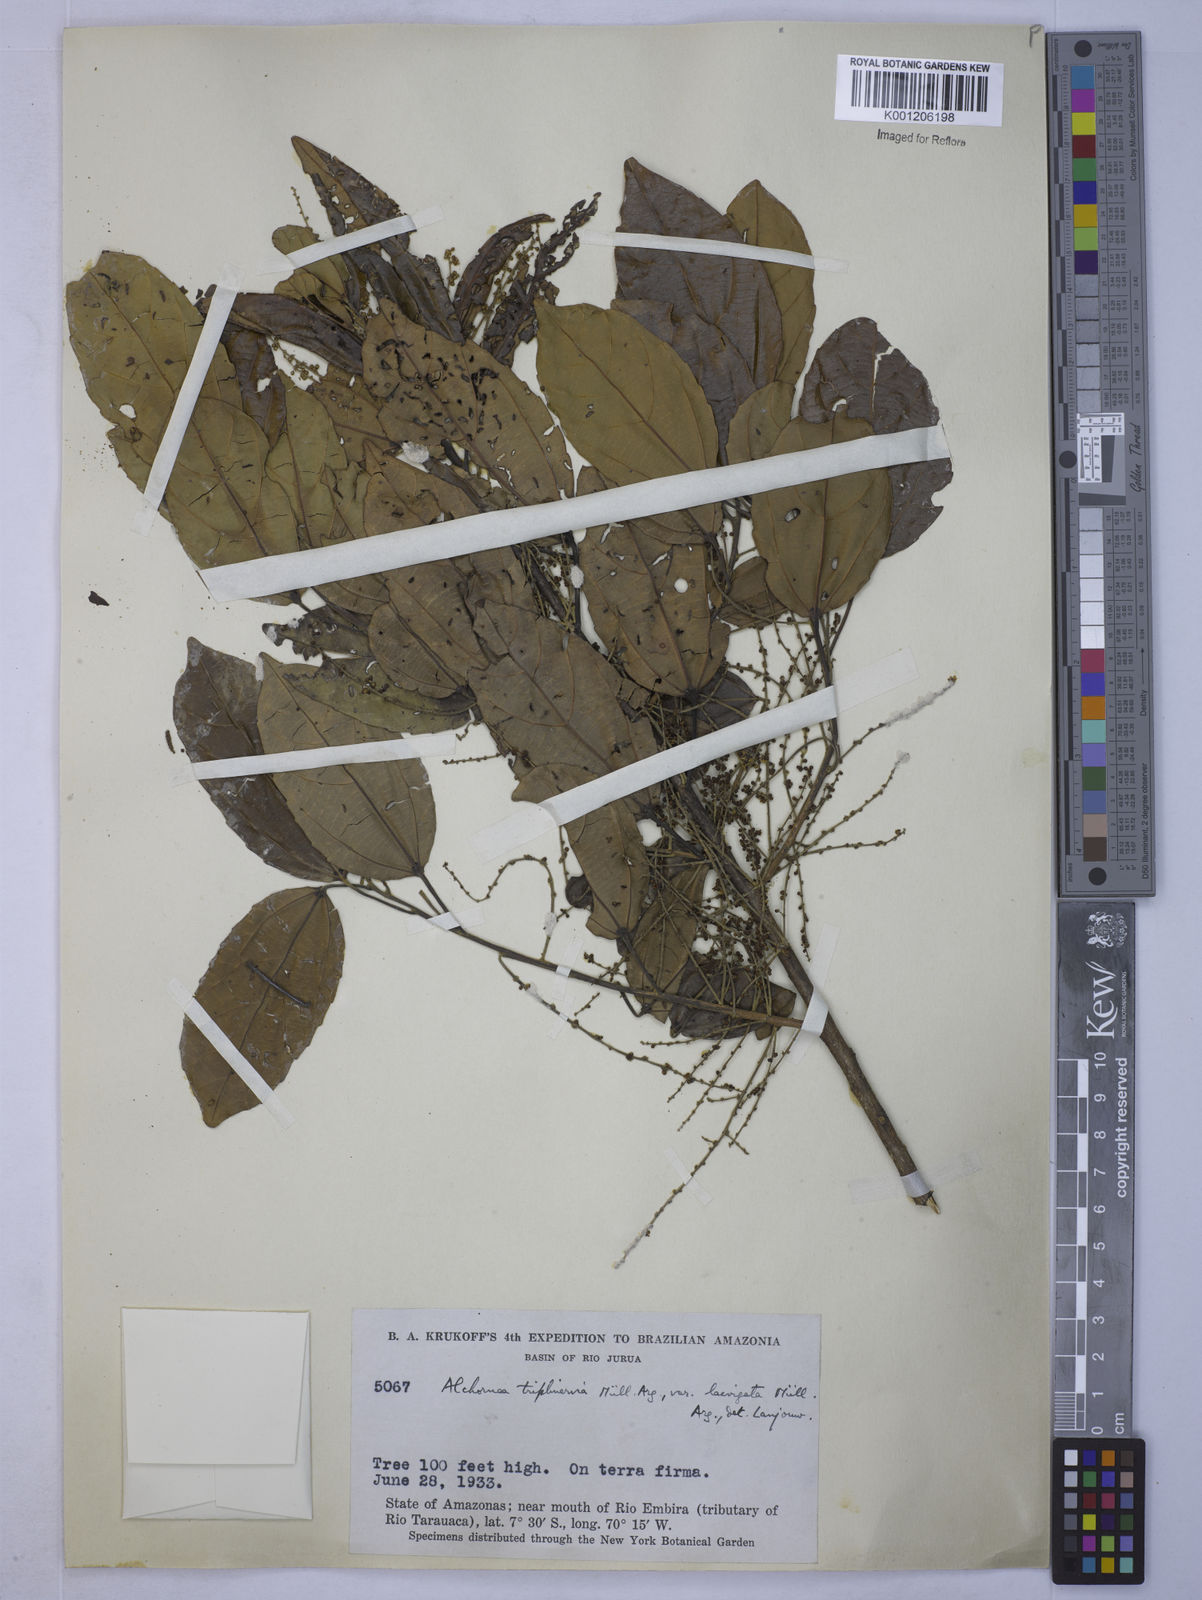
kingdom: Plantae
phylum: Tracheophyta
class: Magnoliopsida
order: Malpighiales
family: Euphorbiaceae
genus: Alchornea
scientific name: Alchornea
